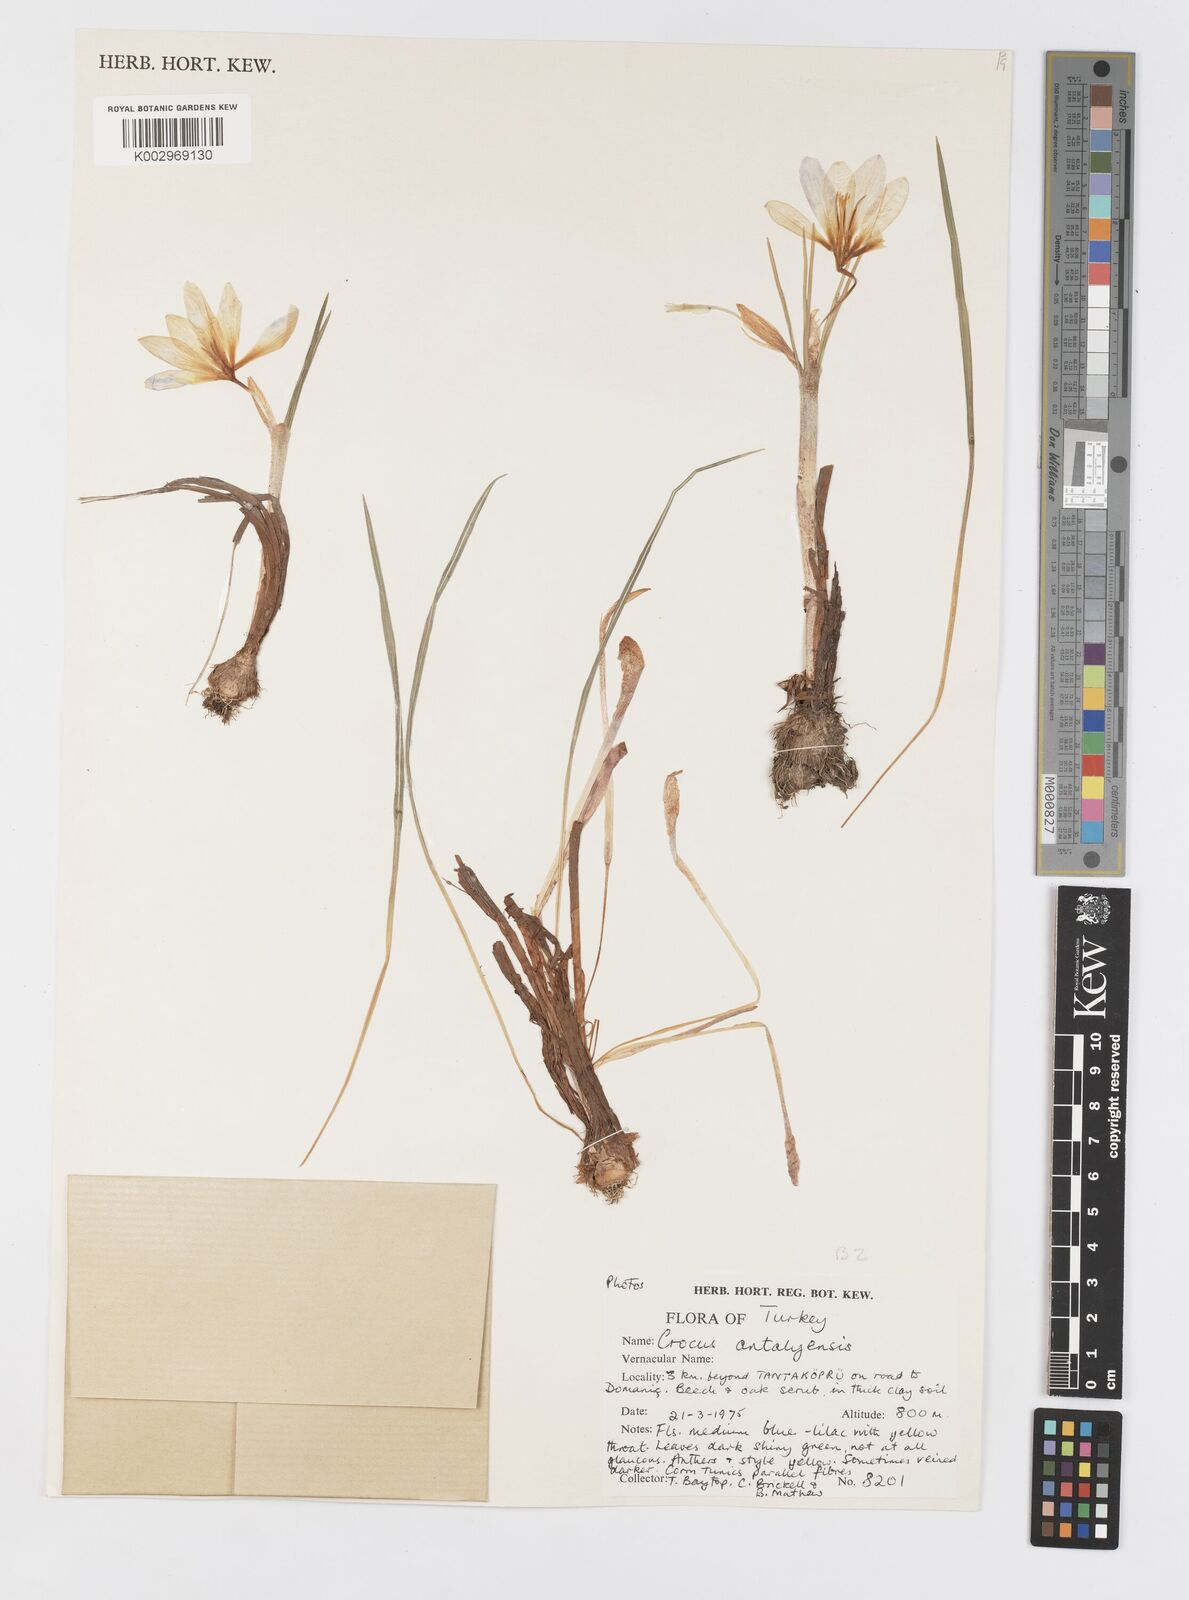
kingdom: Plantae
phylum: Tracheophyta
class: Liliopsida
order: Asparagales
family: Iridaceae
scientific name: Iridaceae
